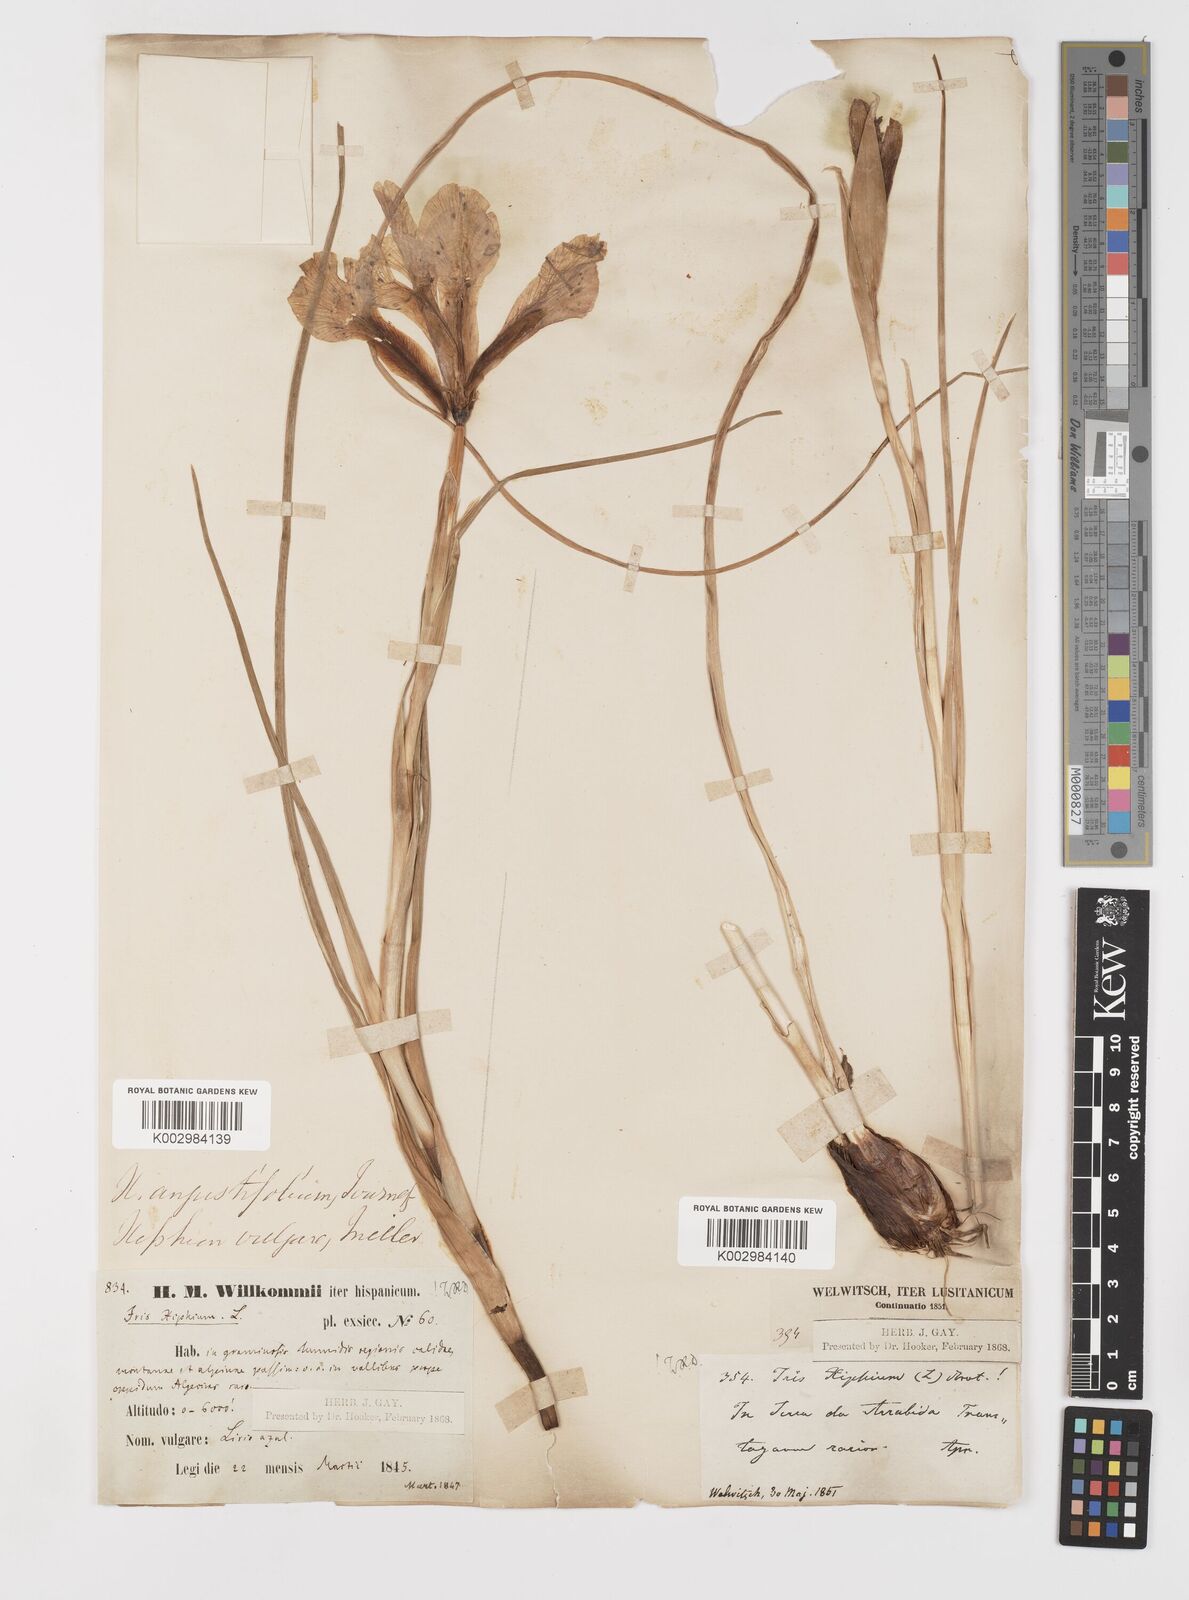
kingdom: Plantae
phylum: Tracheophyta
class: Liliopsida
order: Asparagales
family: Iridaceae
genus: Iris
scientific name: Iris xiphium
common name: Spanish iris
